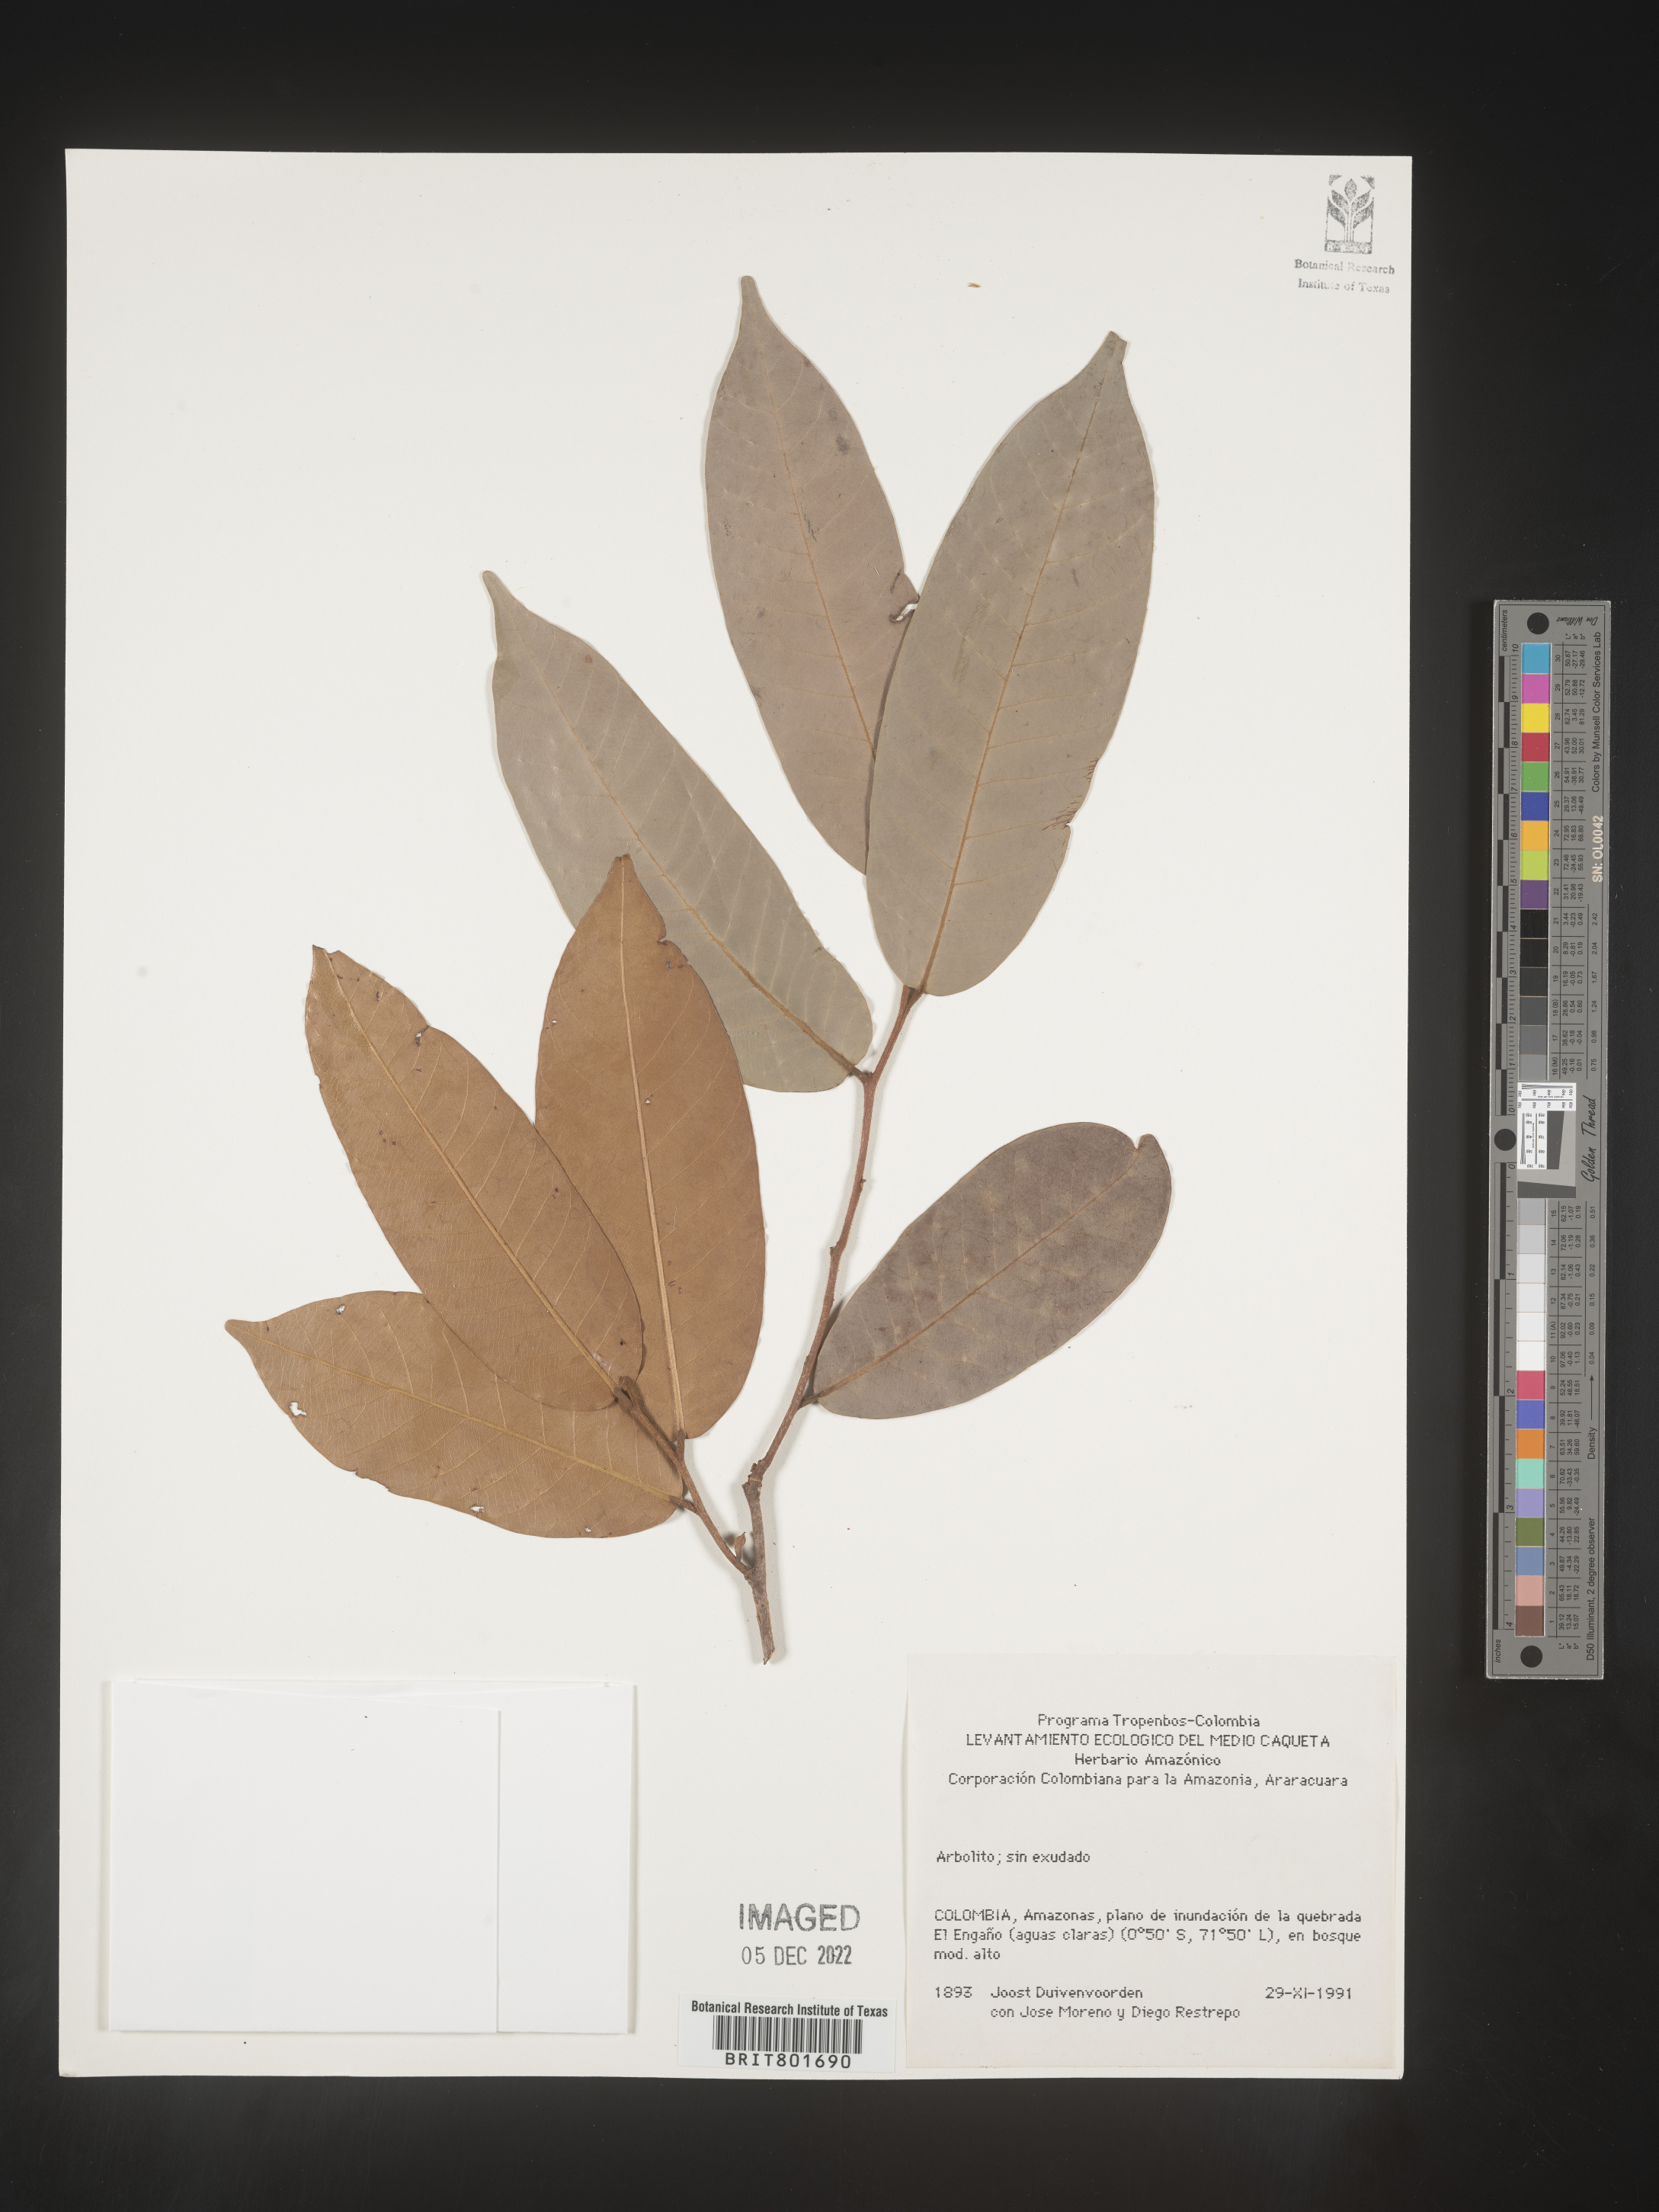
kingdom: Plantae
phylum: Tracheophyta
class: Magnoliopsida
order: Malpighiales
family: Clusiaceae
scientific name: Clusiaceae
